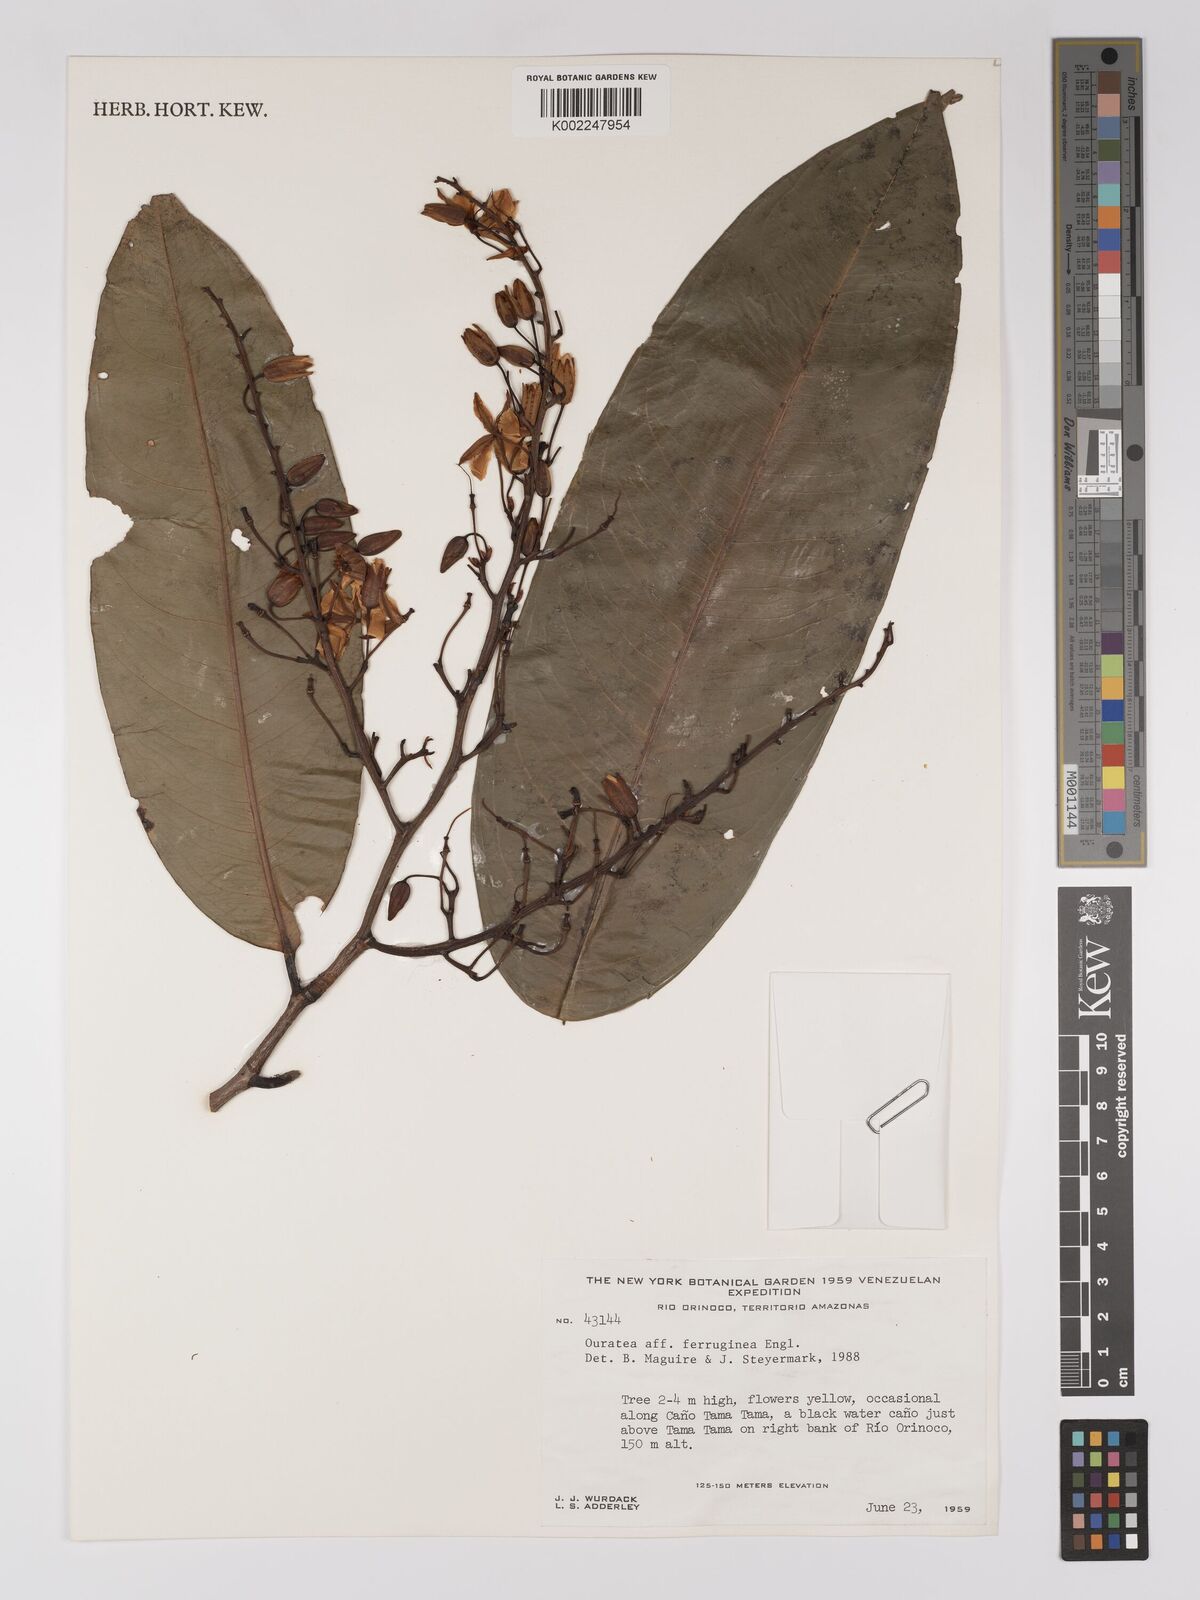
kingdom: Plantae
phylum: Tracheophyta
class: Magnoliopsida
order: Malpighiales
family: Ochnaceae
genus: Ouratea
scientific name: Ouratea ferruginea
